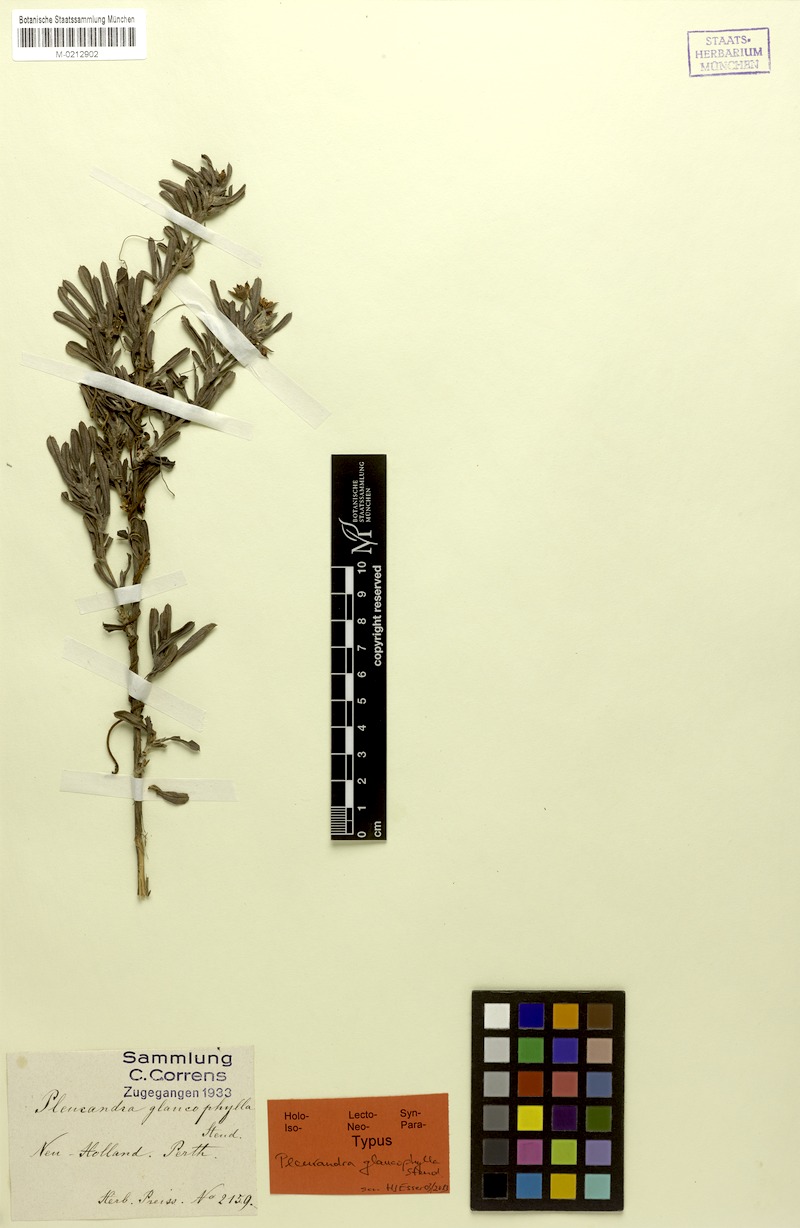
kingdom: Plantae
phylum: Tracheophyta
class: Magnoliopsida
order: Dilleniales
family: Dilleniaceae
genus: Hibbertia
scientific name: Hibbertia aurea
